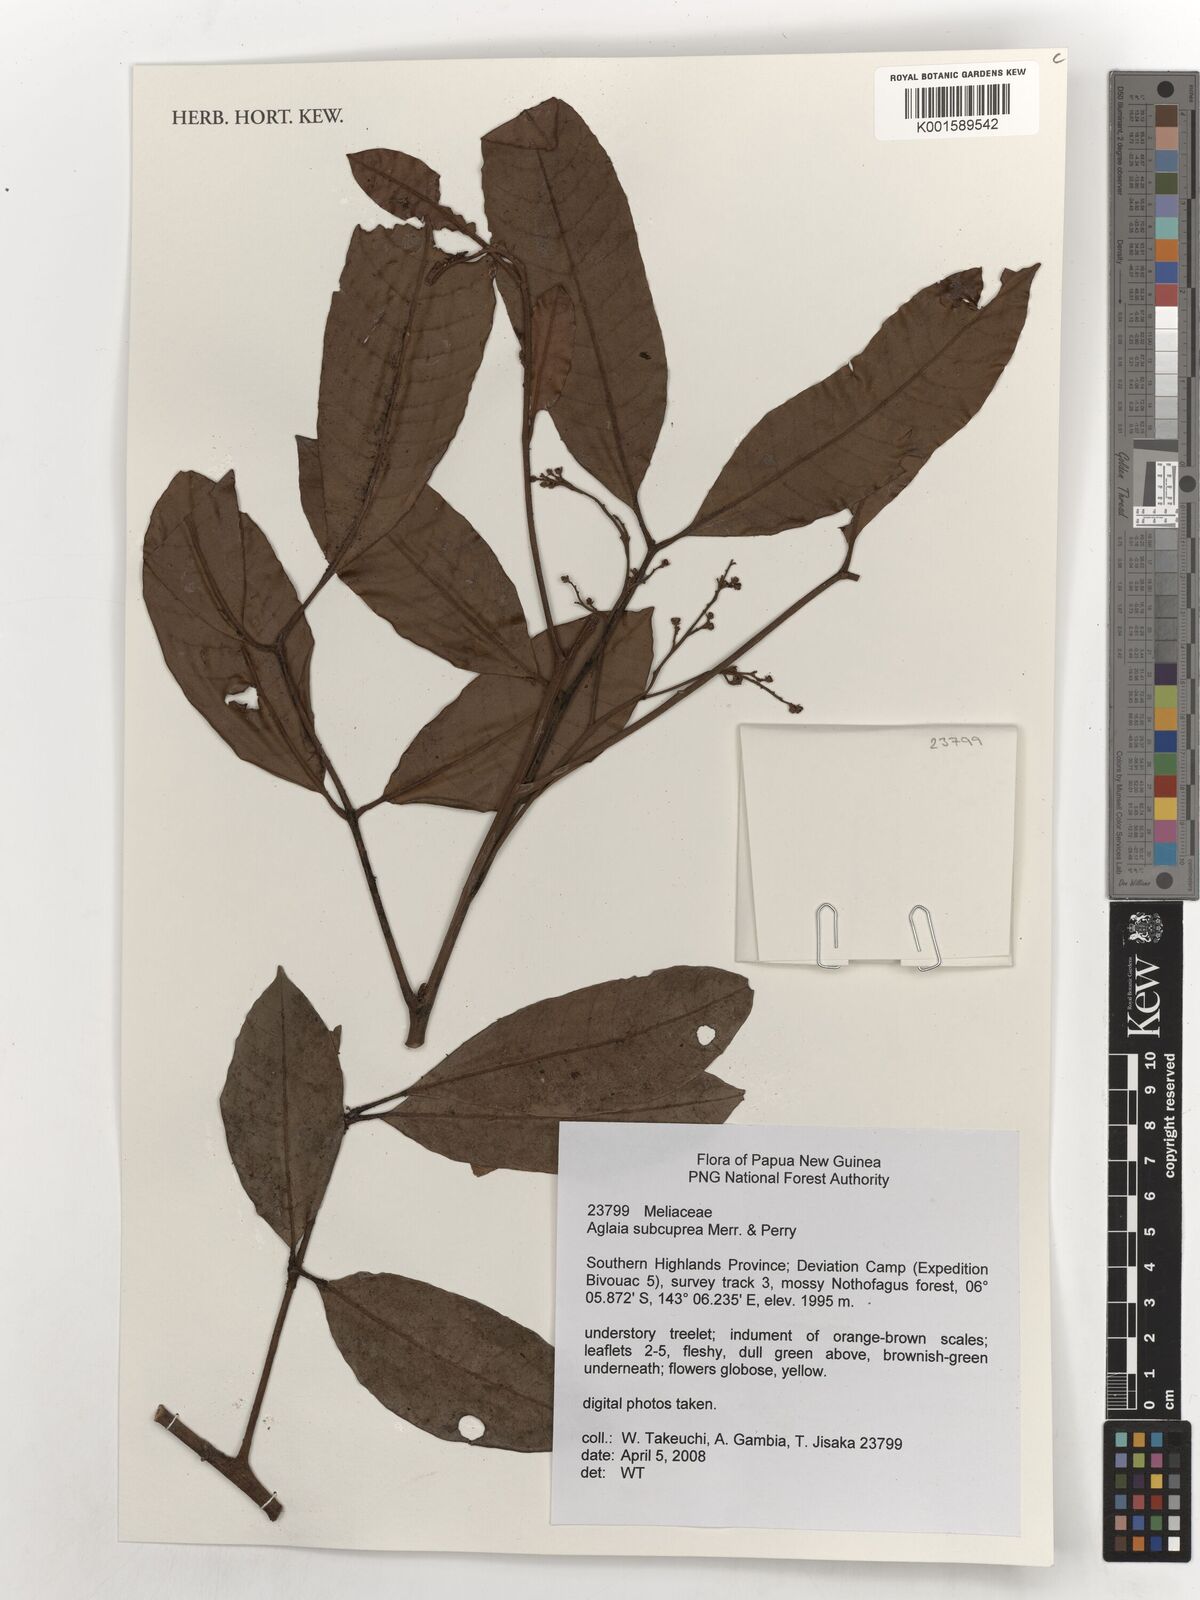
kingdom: Plantae
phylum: Tracheophyta
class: Magnoliopsida
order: Sapindales
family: Meliaceae
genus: Aglaia
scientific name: Aglaia subcuprea
